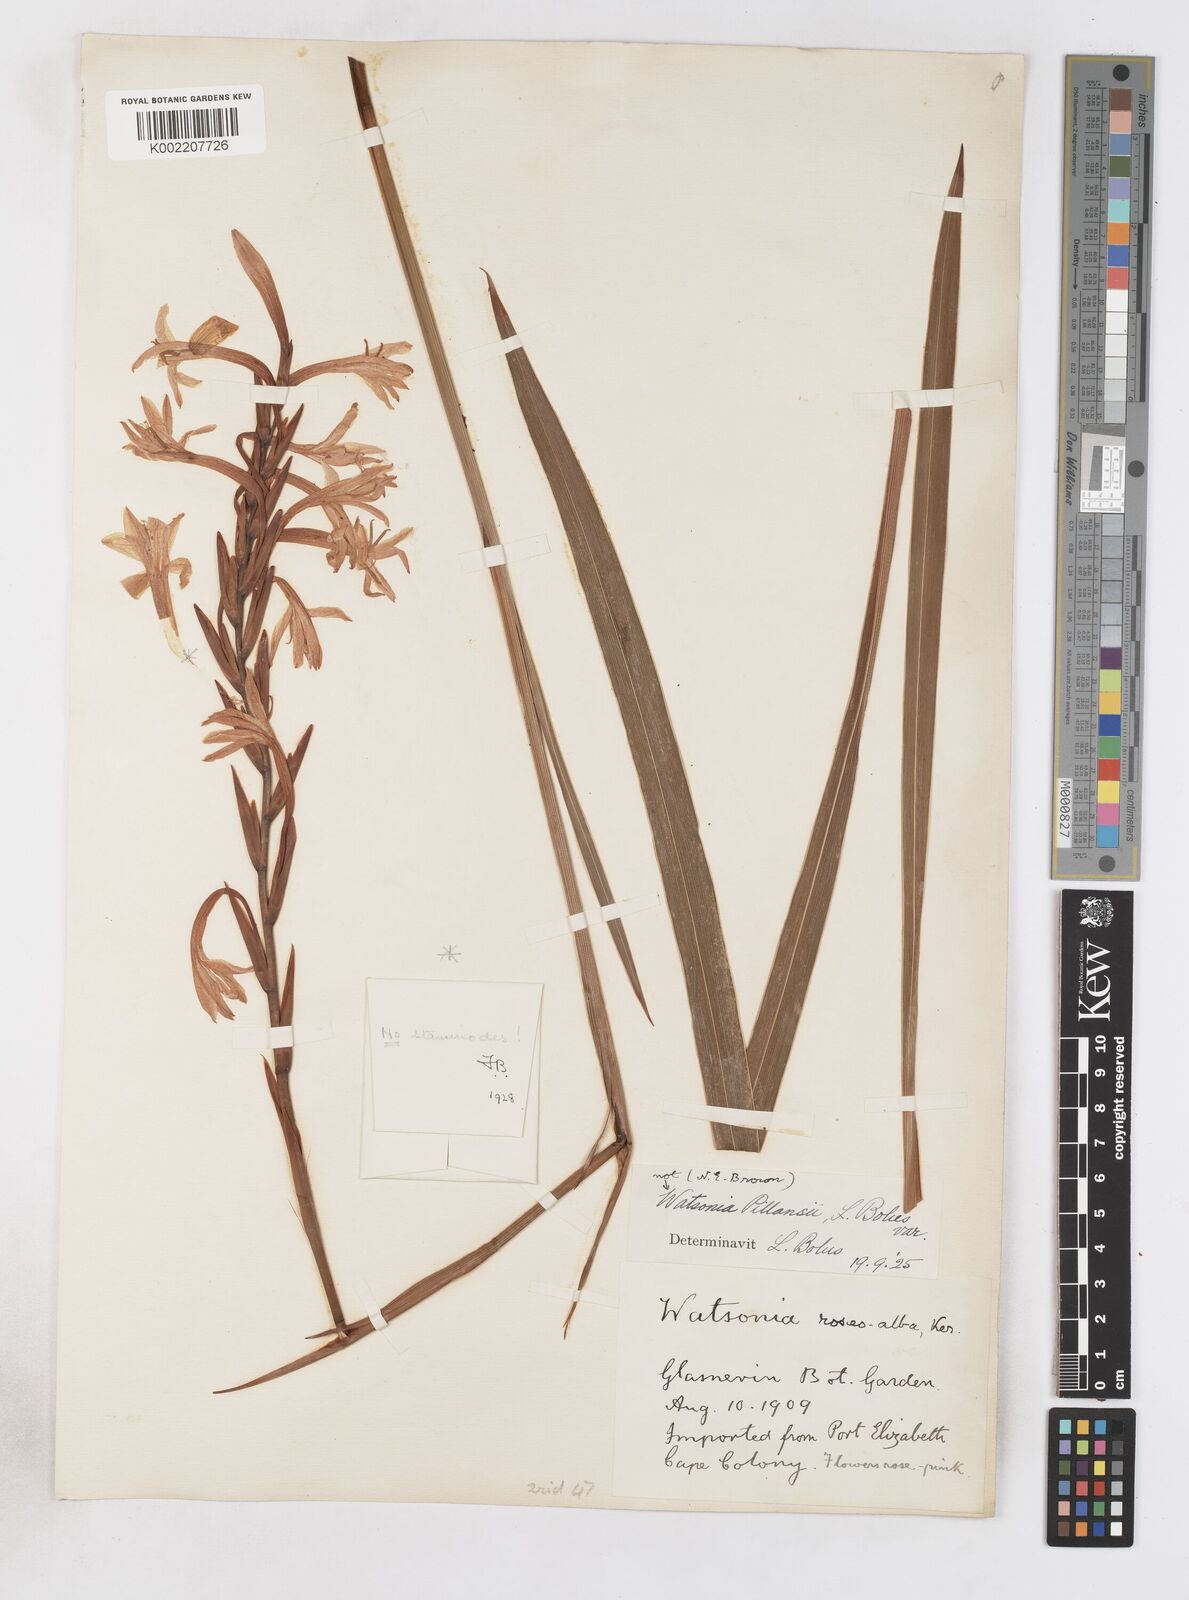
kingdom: Plantae
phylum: Tracheophyta
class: Liliopsida
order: Asparagales
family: Iridaceae
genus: Watsonia
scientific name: Watsonia
